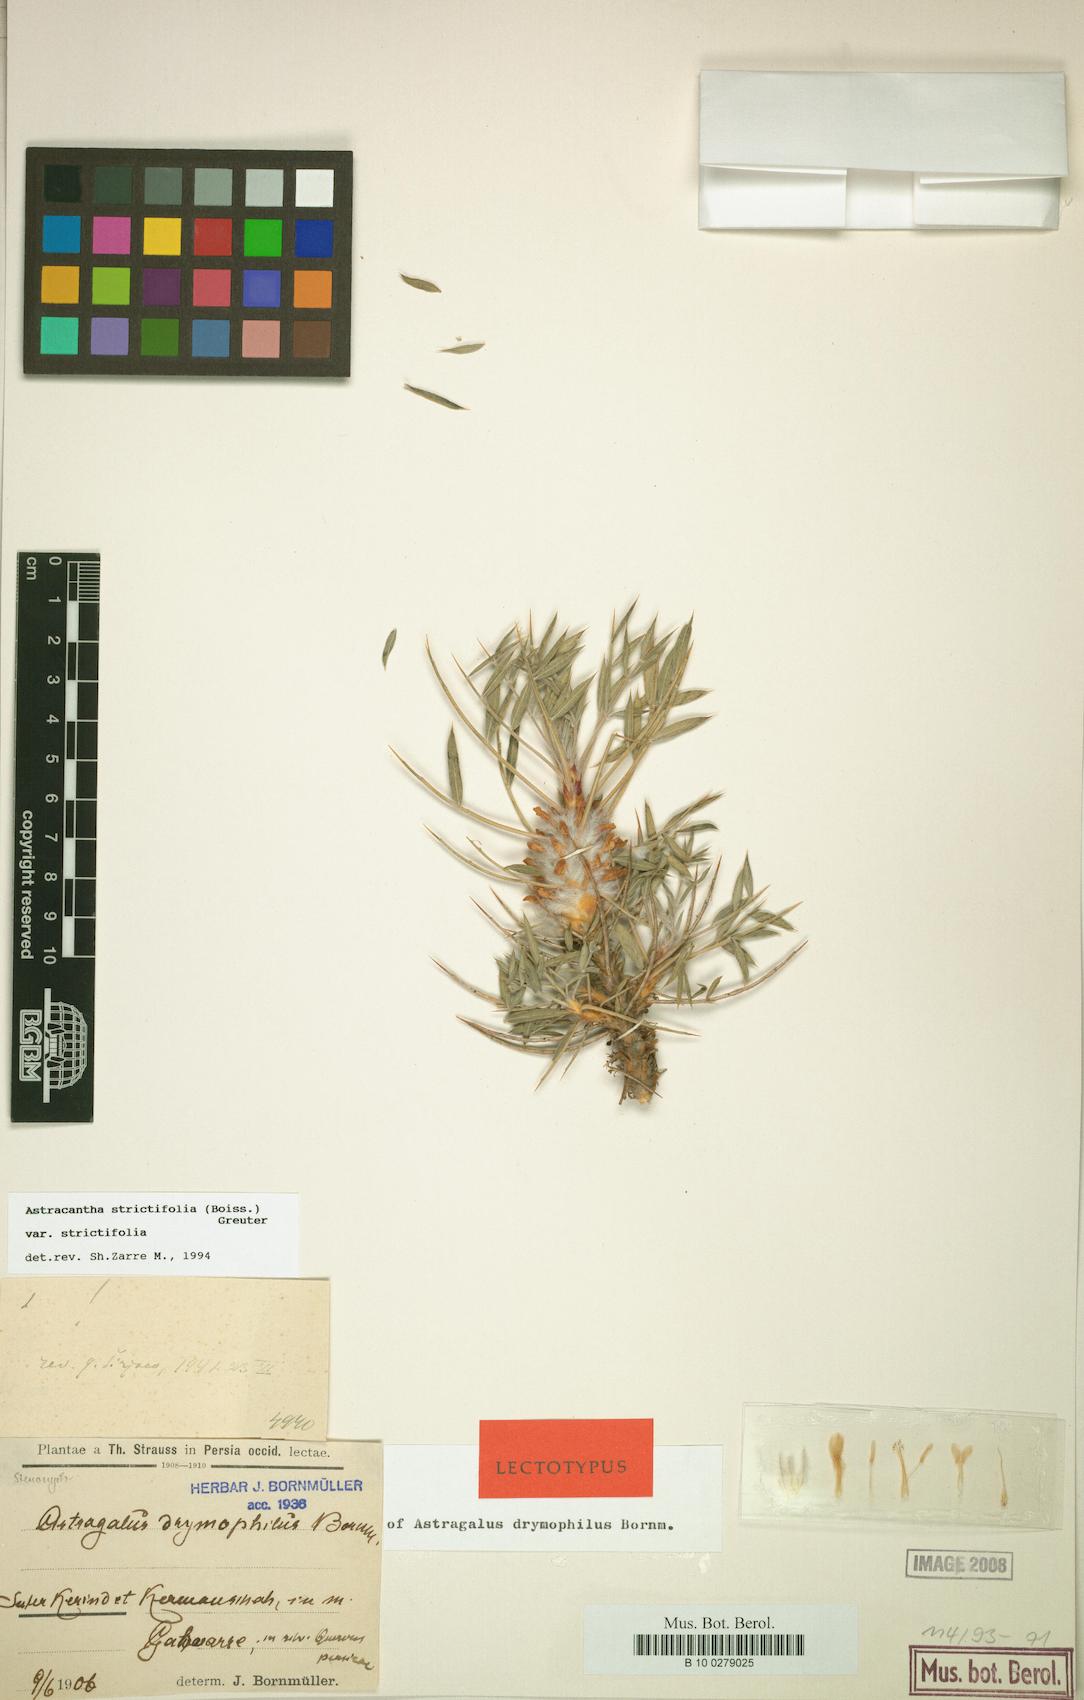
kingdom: Plantae
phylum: Tracheophyta
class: Magnoliopsida
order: Fabales
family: Fabaceae
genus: Astragalus
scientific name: Astragalus strictifolius
